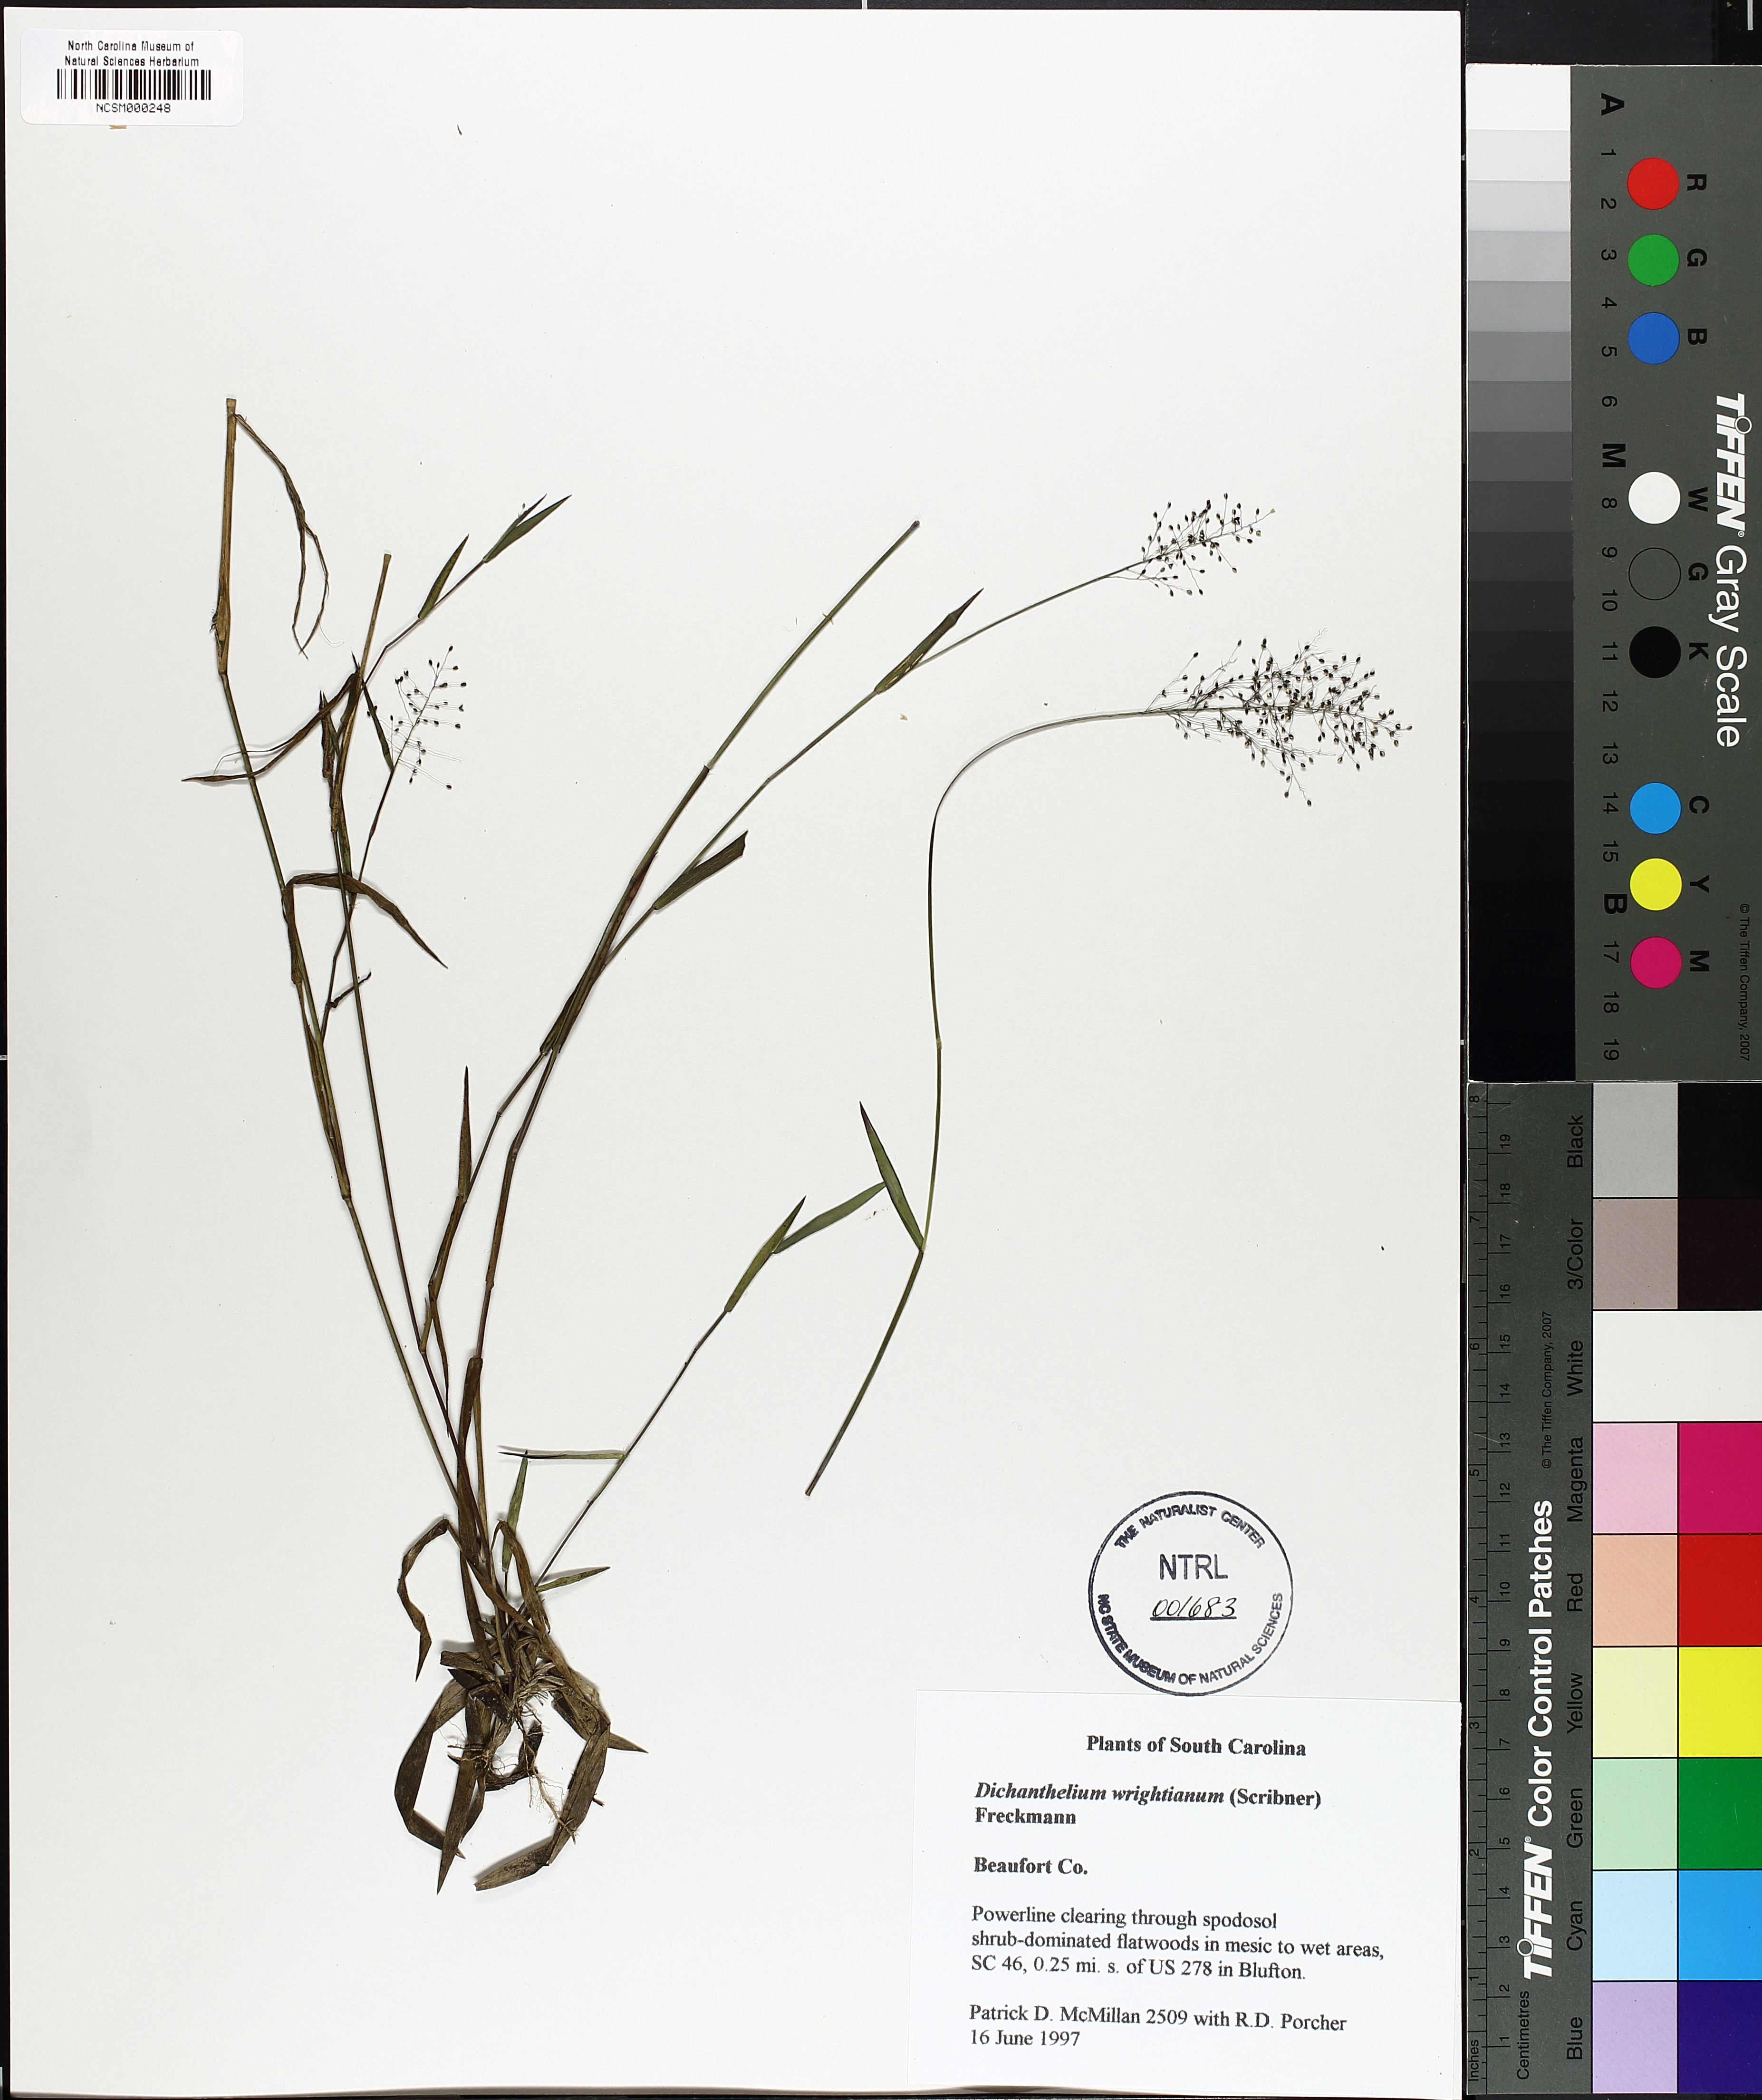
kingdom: Plantae
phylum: Tracheophyta
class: Liliopsida
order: Poales
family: Poaceae
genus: Dichanthelium
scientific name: Dichanthelium wrightianum
